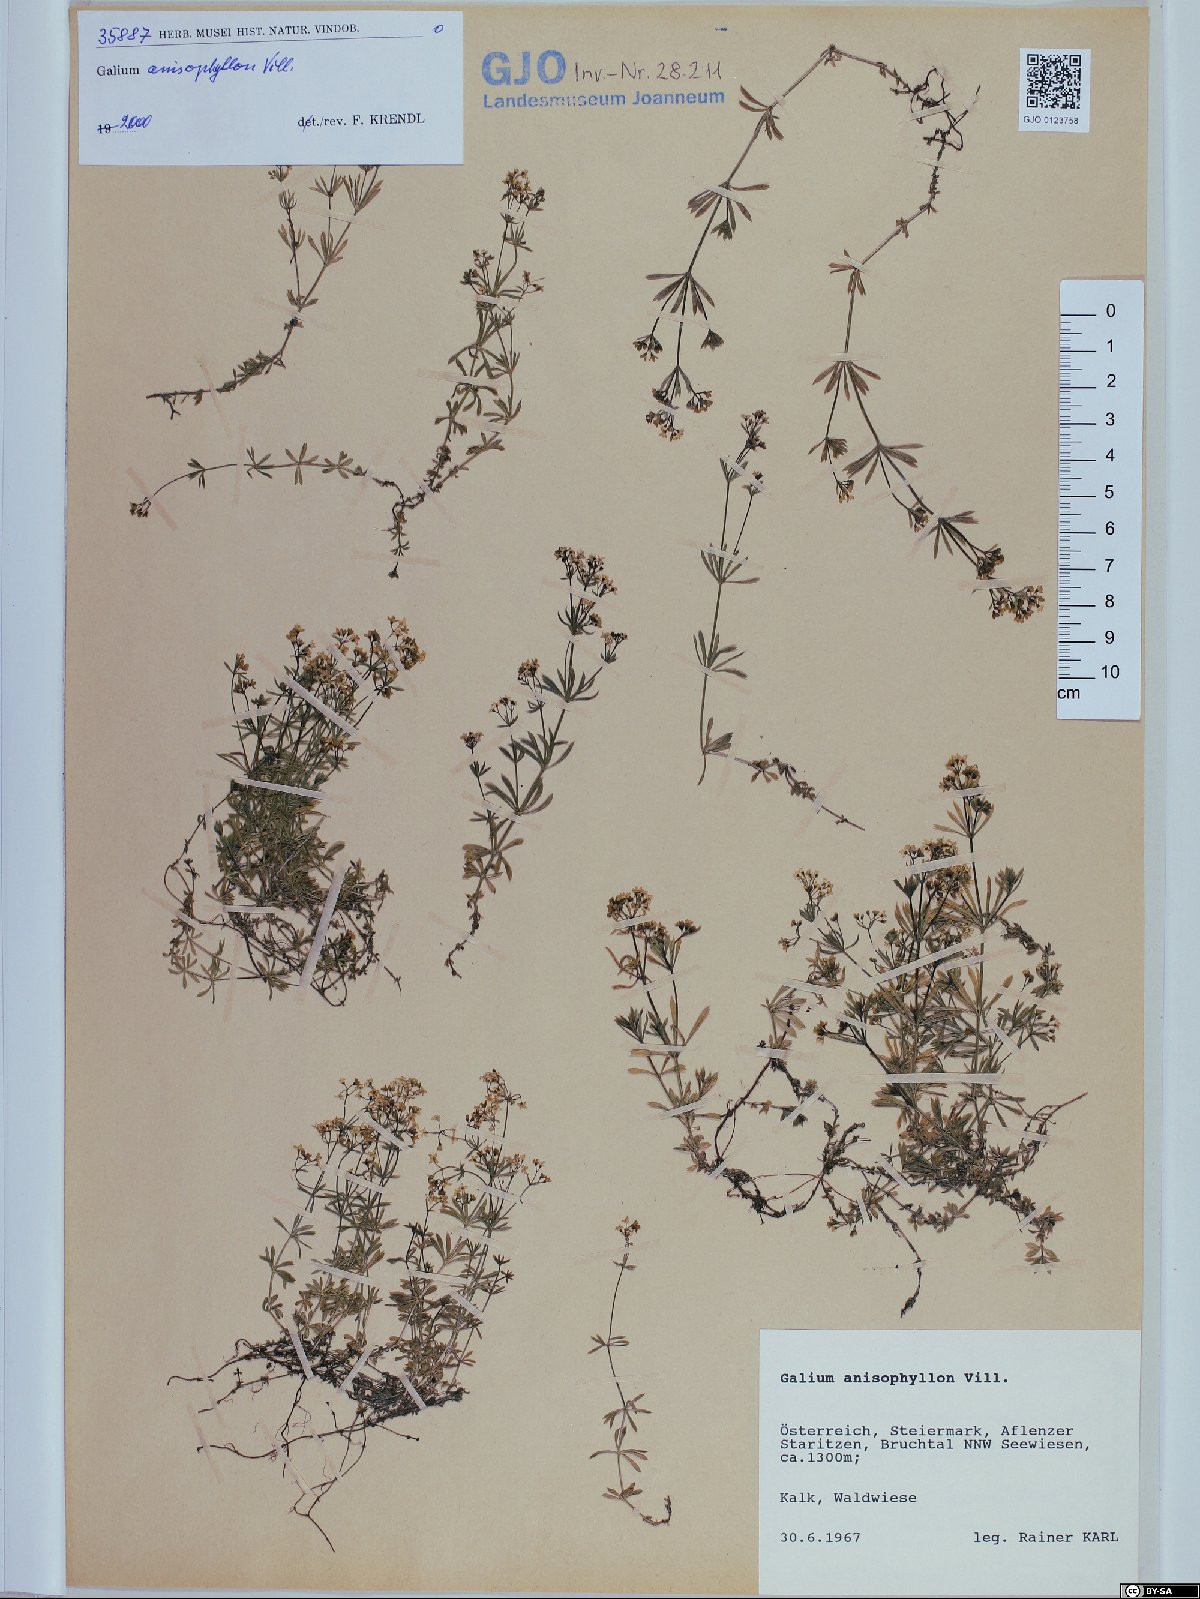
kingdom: Plantae
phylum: Tracheophyta
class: Magnoliopsida
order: Gentianales
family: Rubiaceae
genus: Galium
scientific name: Galium anisophyllon
